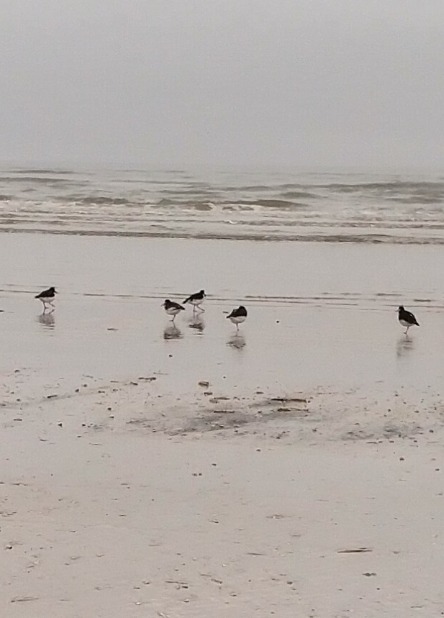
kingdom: Animalia
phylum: Chordata
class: Aves
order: Charadriiformes
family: Haematopodidae
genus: Haematopus
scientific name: Haematopus ostralegus
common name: Strandskade
